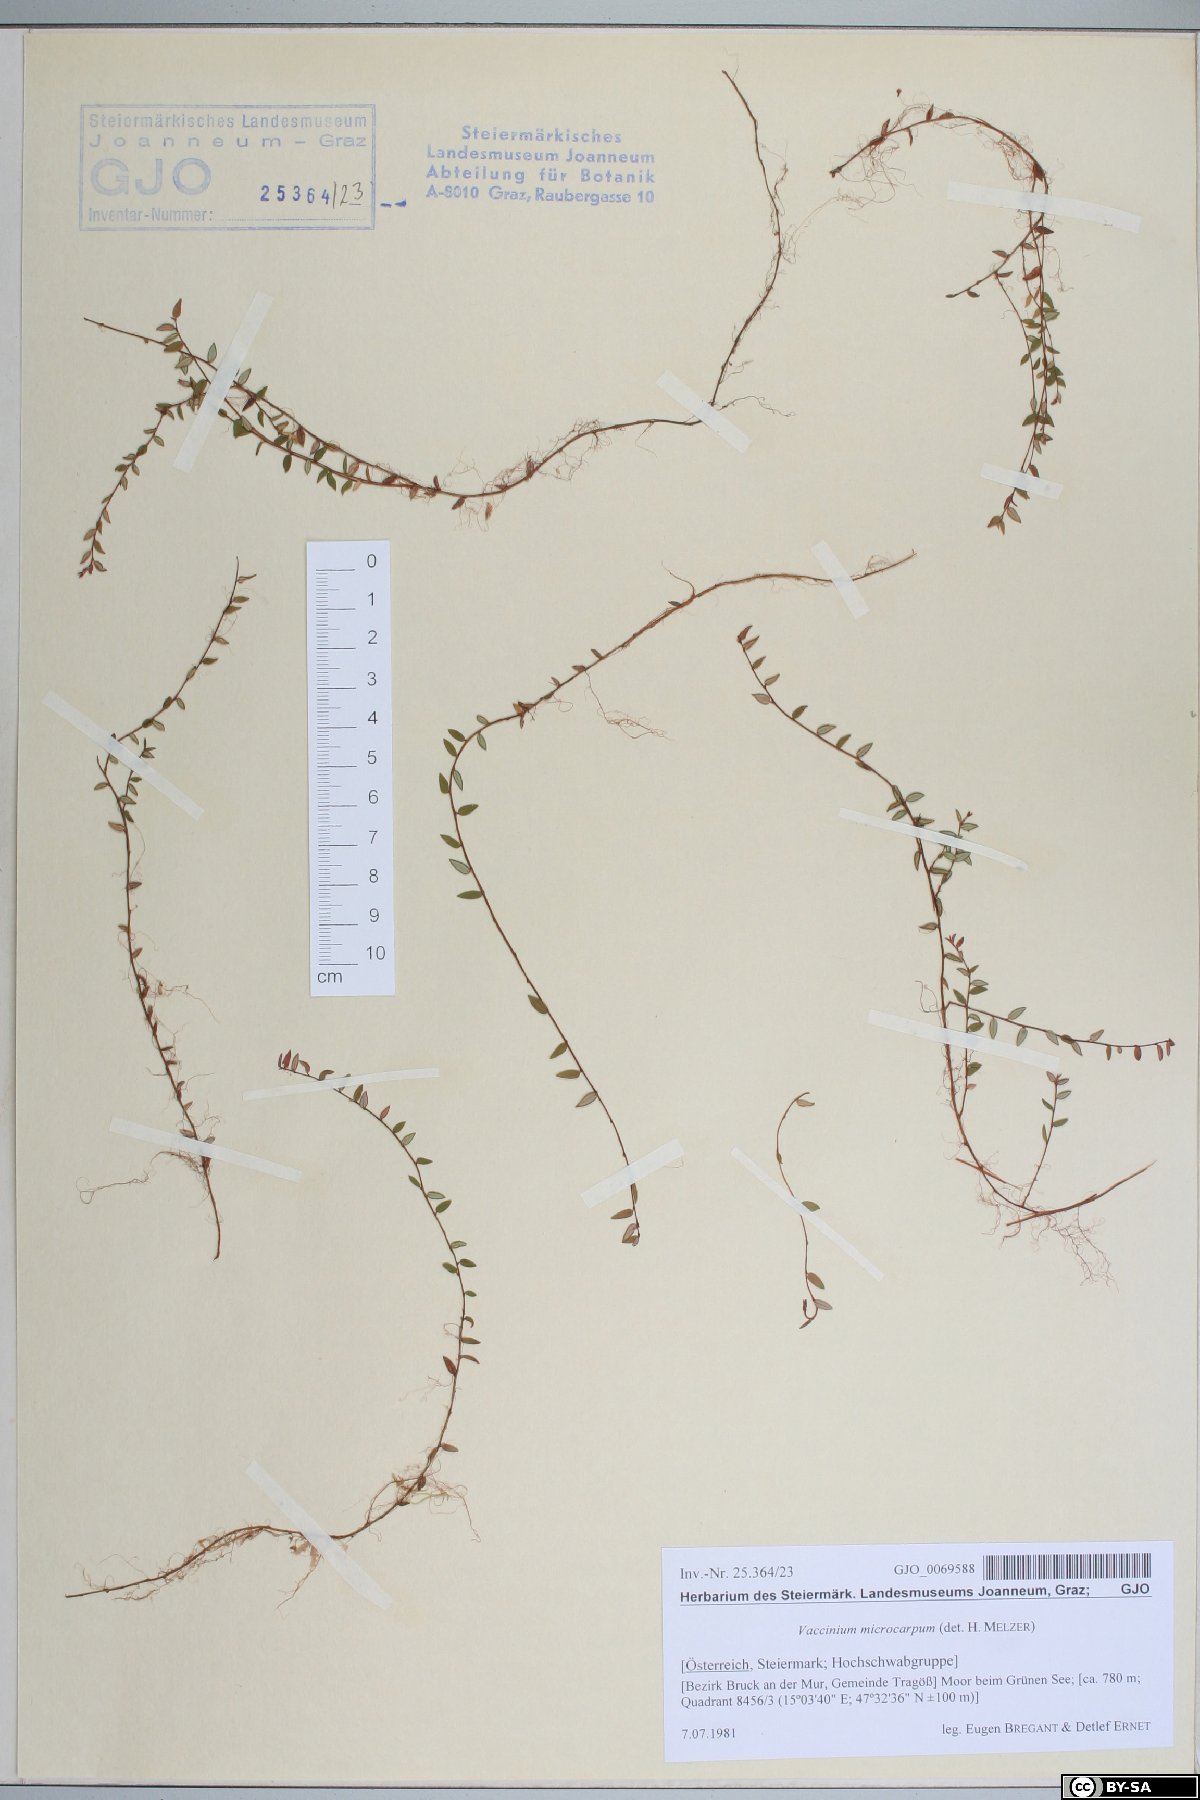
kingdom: Plantae
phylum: Tracheophyta
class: Magnoliopsida
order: Ericales
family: Ericaceae
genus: Vaccinium
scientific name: Vaccinium microcarpum
